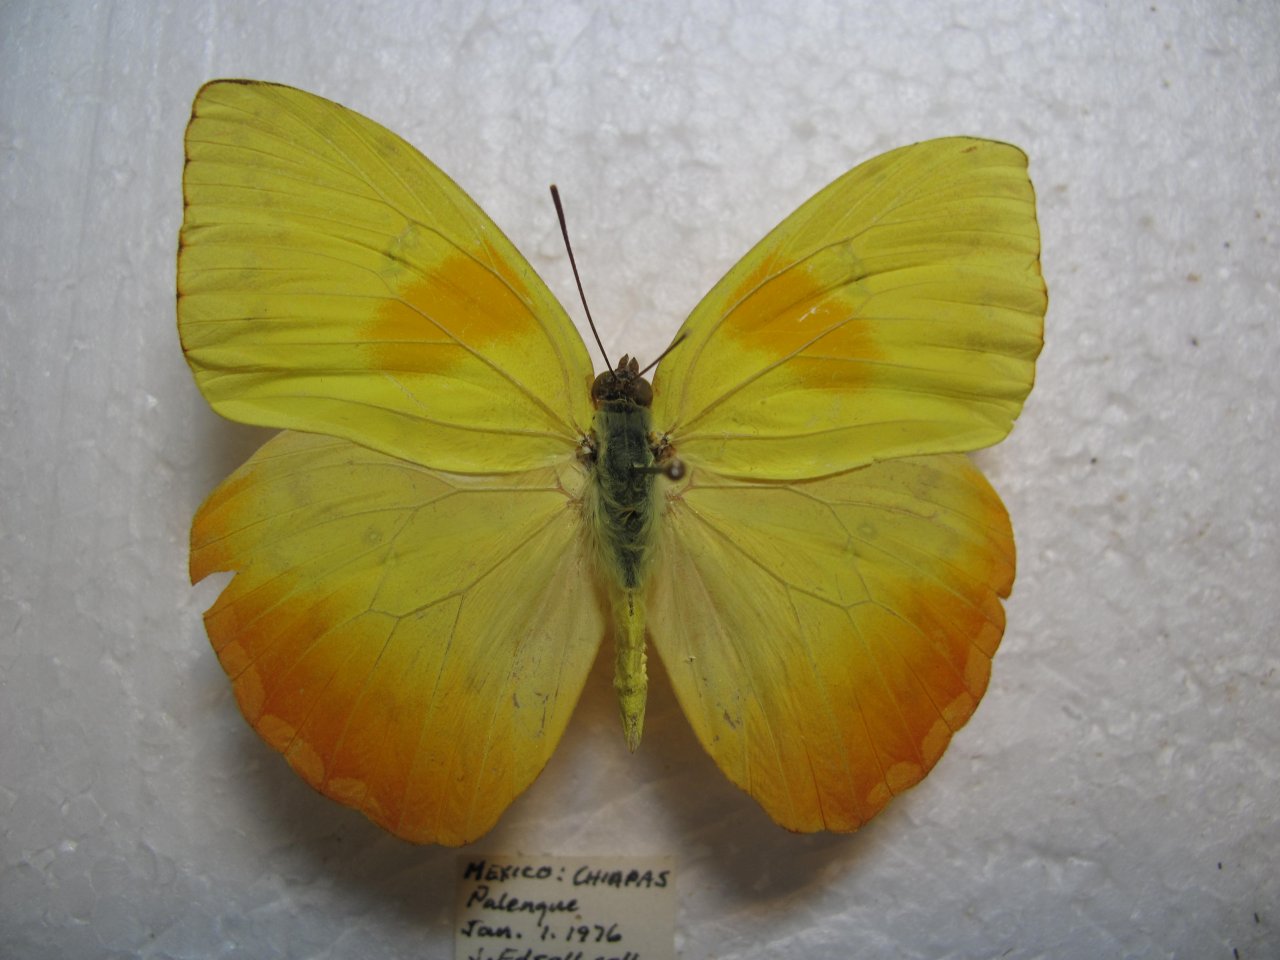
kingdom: Animalia
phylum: Arthropoda
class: Insecta
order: Lepidoptera
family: Pieridae
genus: Phoebis
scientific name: Phoebis philea
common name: Orange-barred Sulphur
